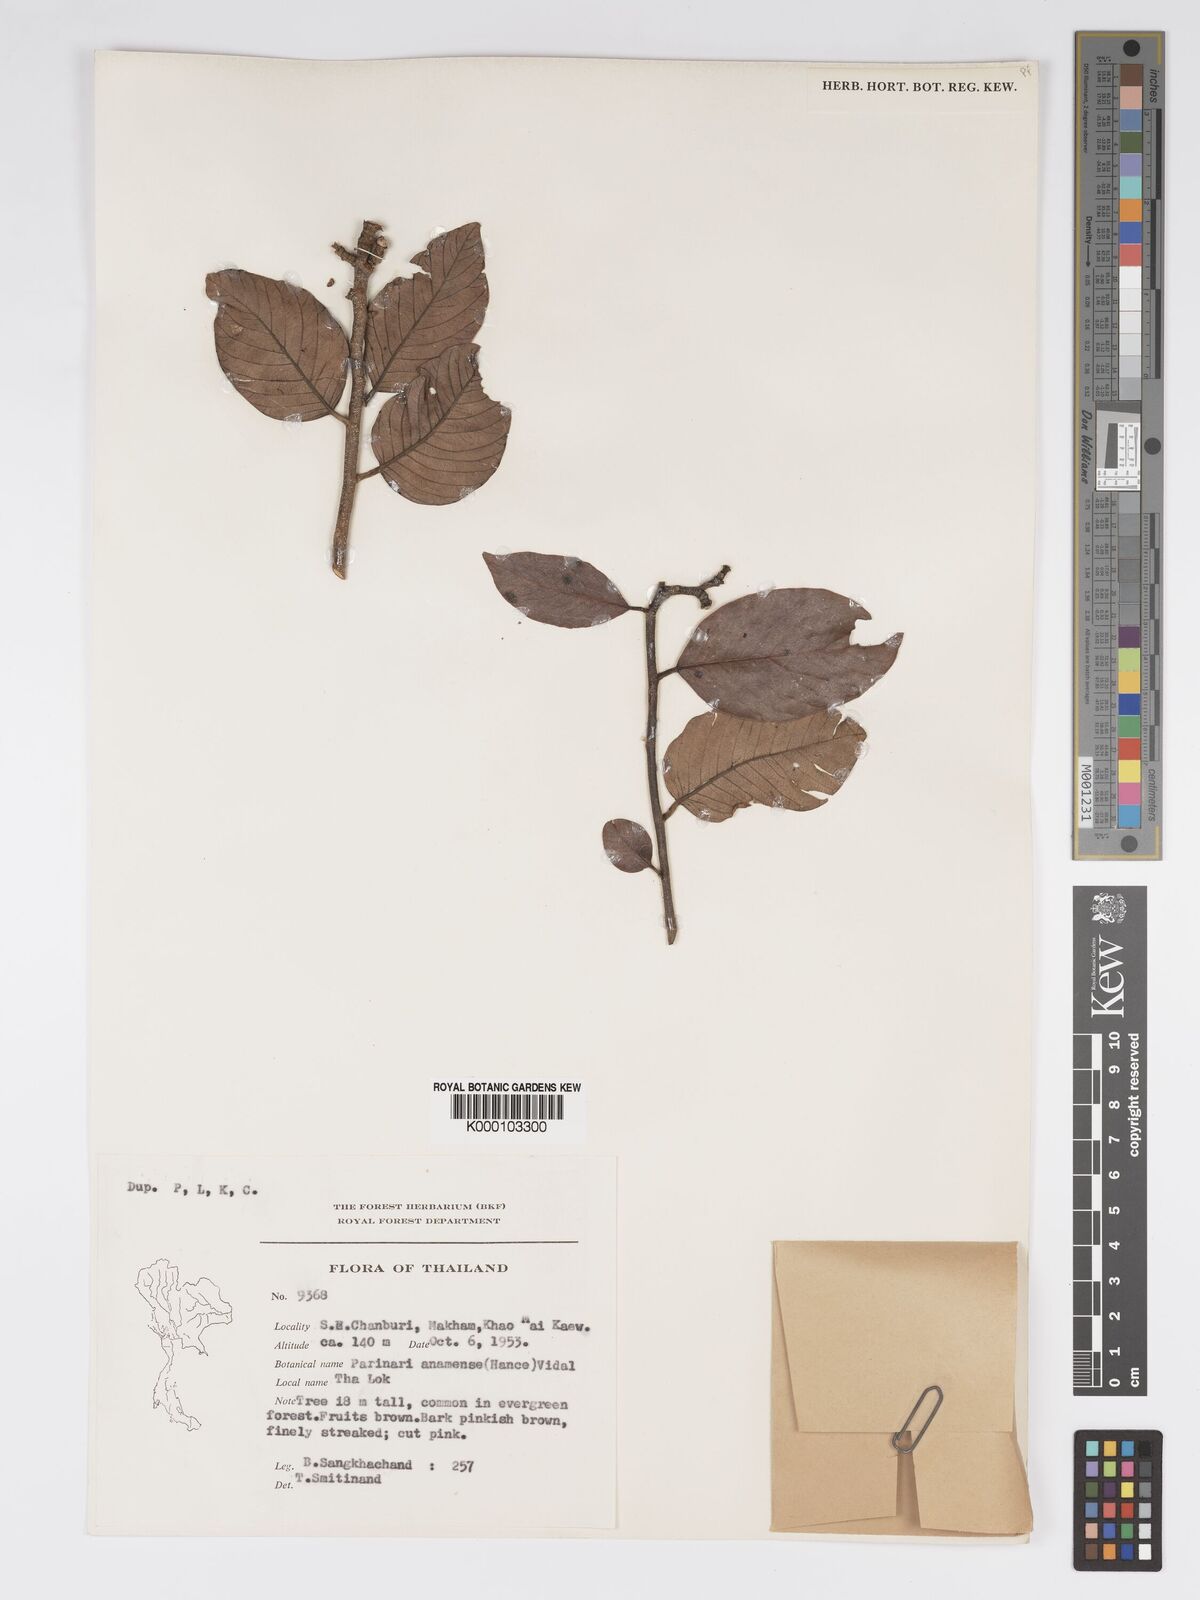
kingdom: Plantae
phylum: Tracheophyta
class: Magnoliopsida
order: Malpighiales
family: Chrysobalanaceae
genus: Parinari
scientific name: Parinari anamensis
